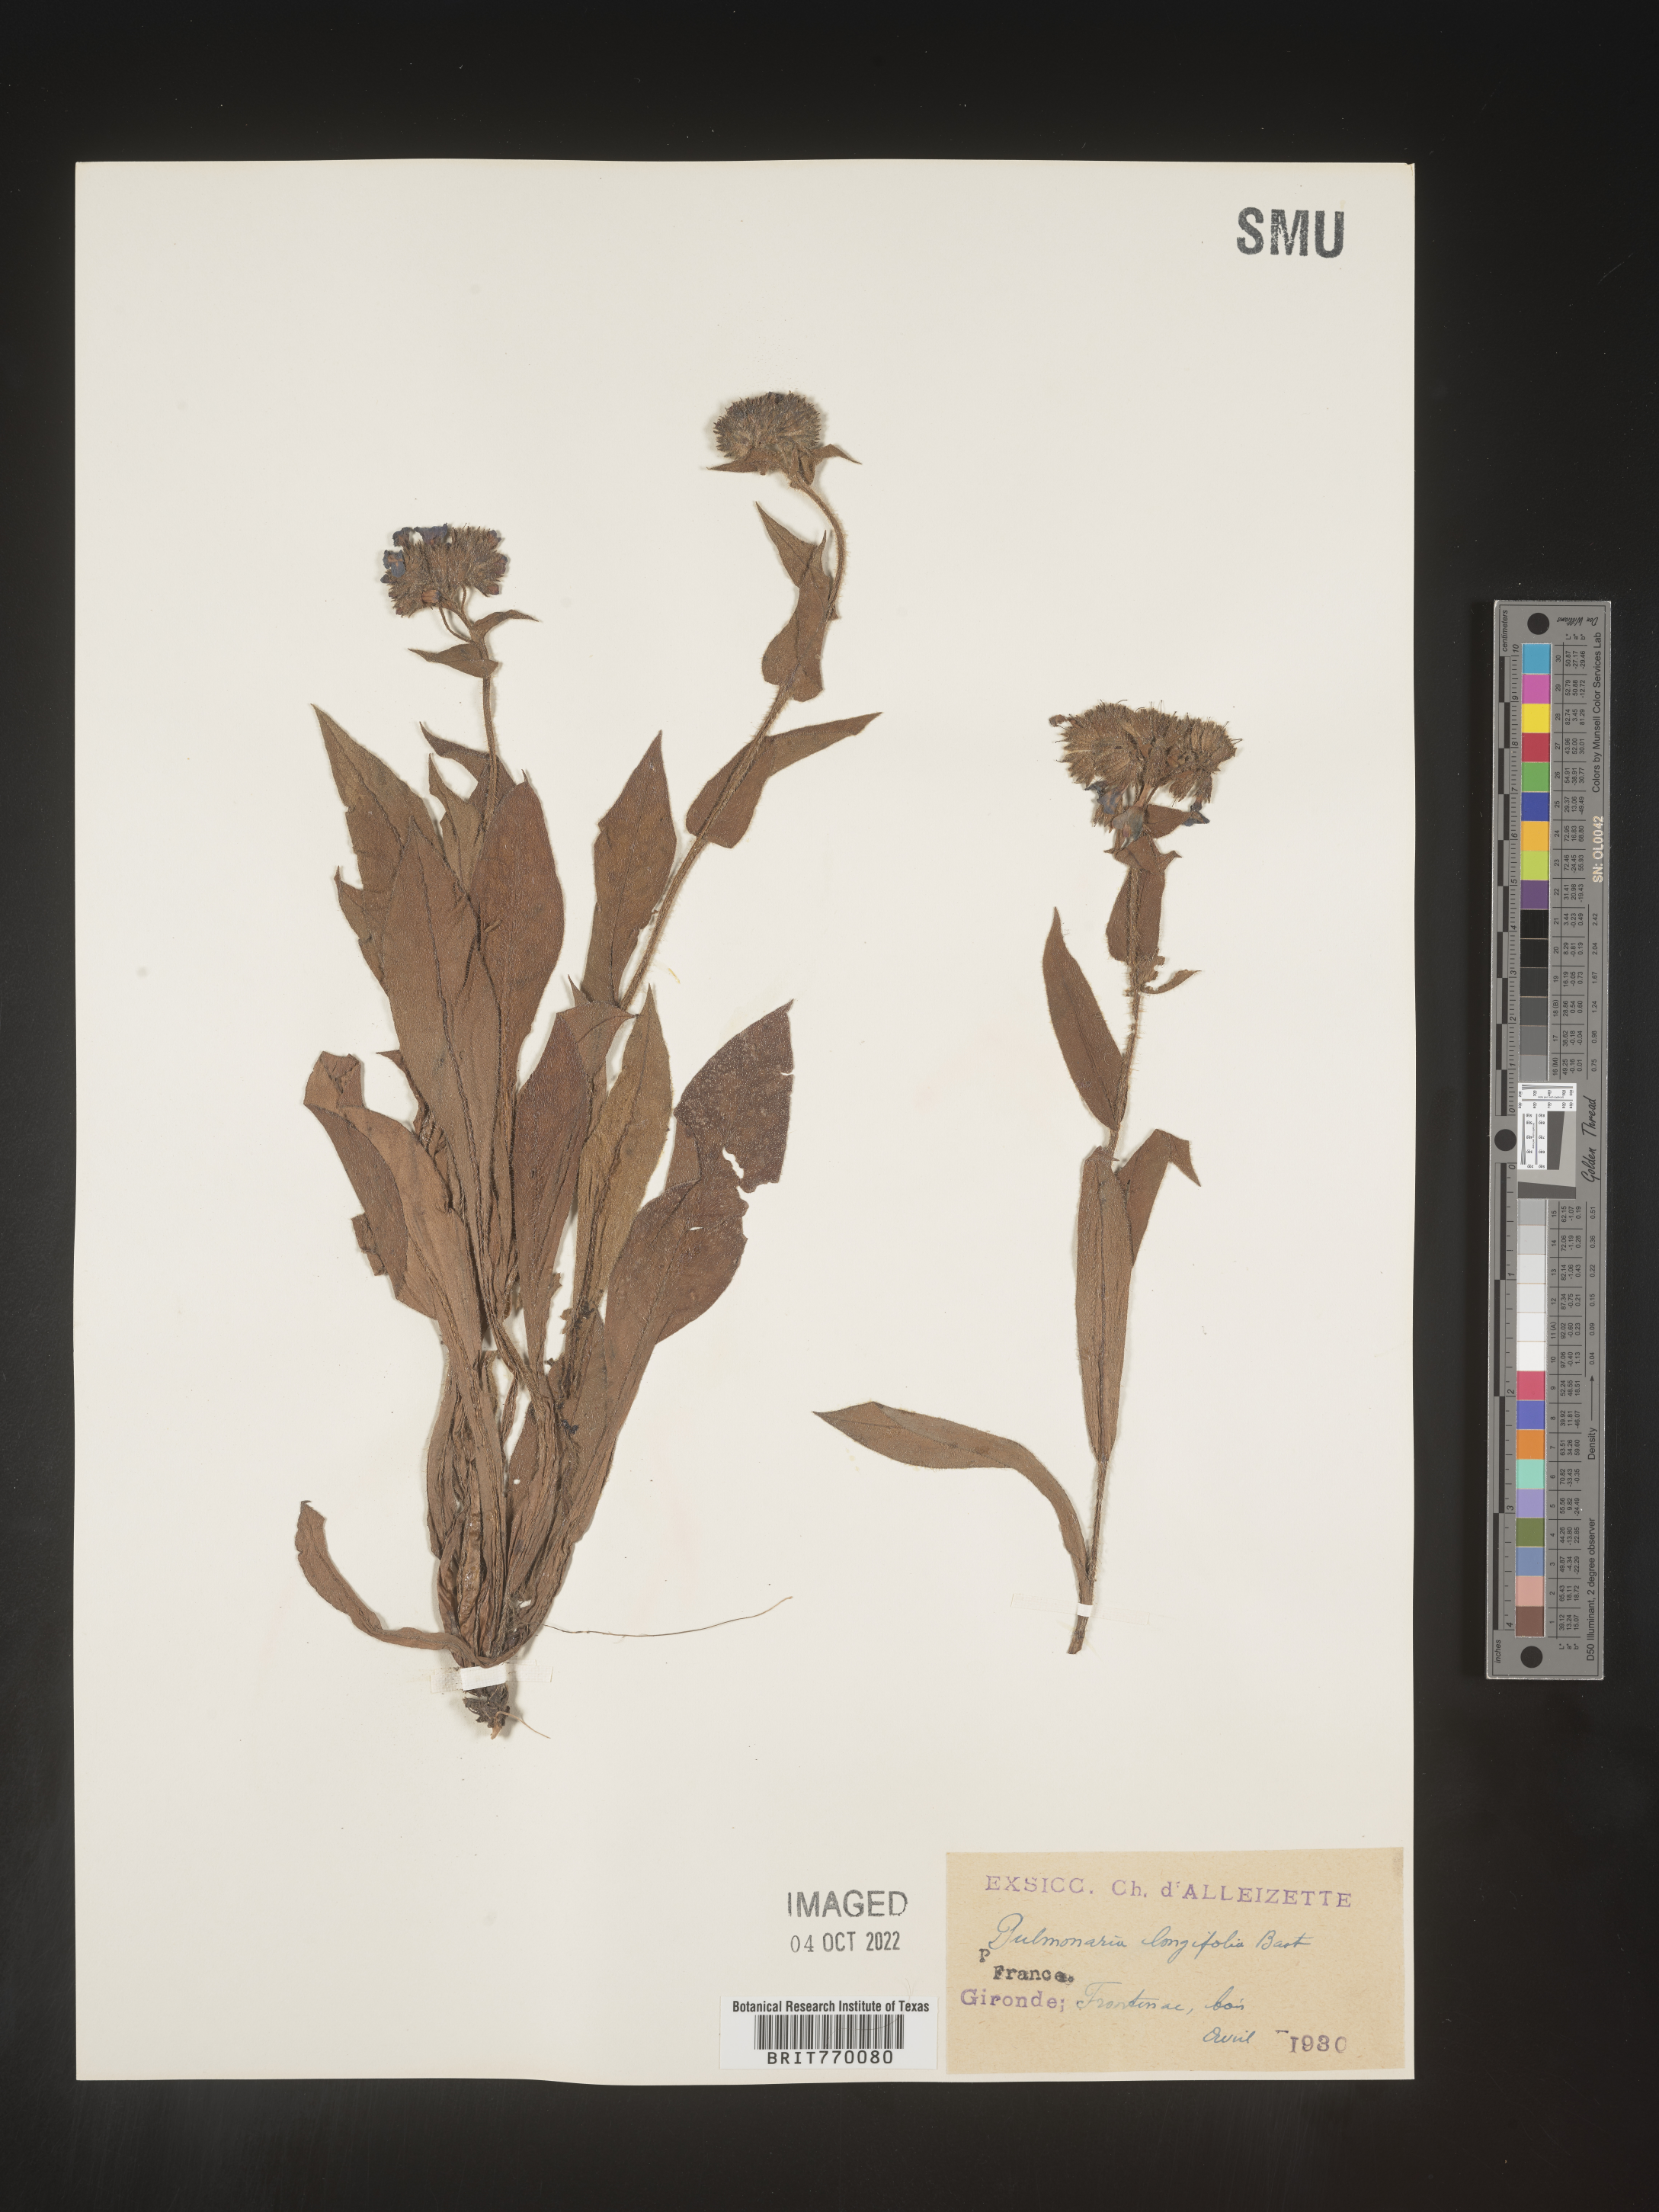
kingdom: Plantae
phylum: Tracheophyta
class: Magnoliopsida
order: Boraginales
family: Boraginaceae
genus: Pulmonaria
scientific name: Pulmonaria
